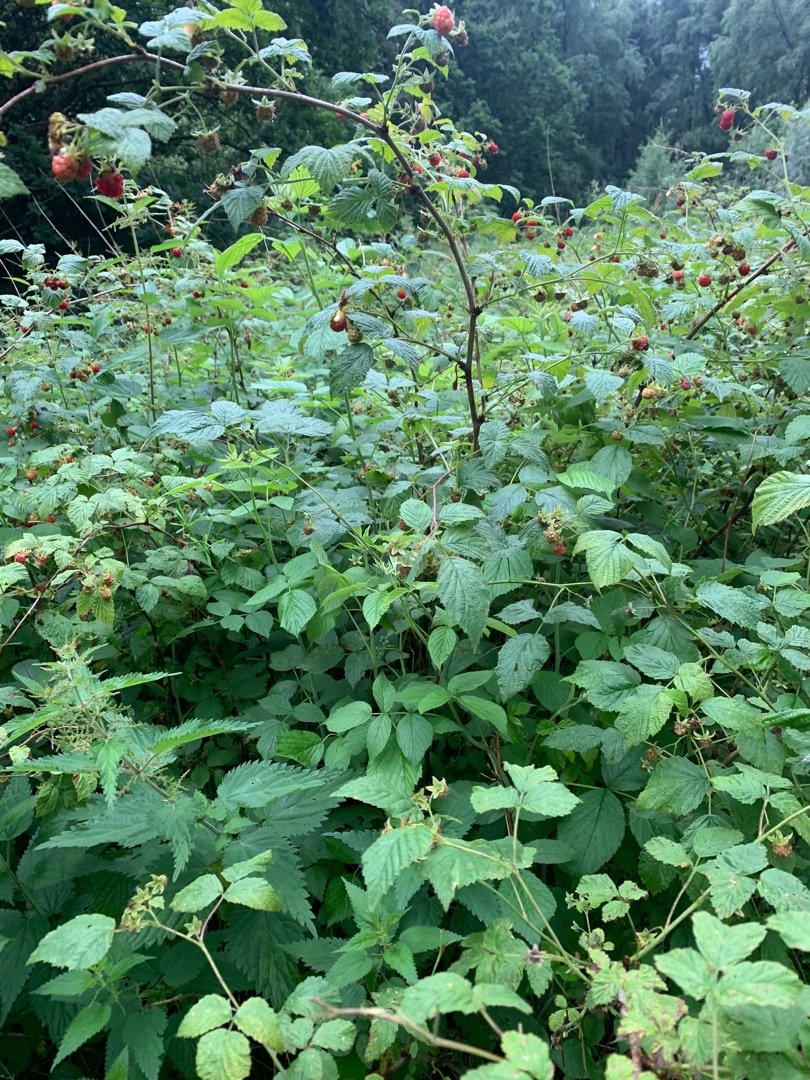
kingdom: Plantae
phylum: Tracheophyta
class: Magnoliopsida
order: Rosales
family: Rosaceae
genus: Rubus
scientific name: Rubus idaeus
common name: Hindbær
